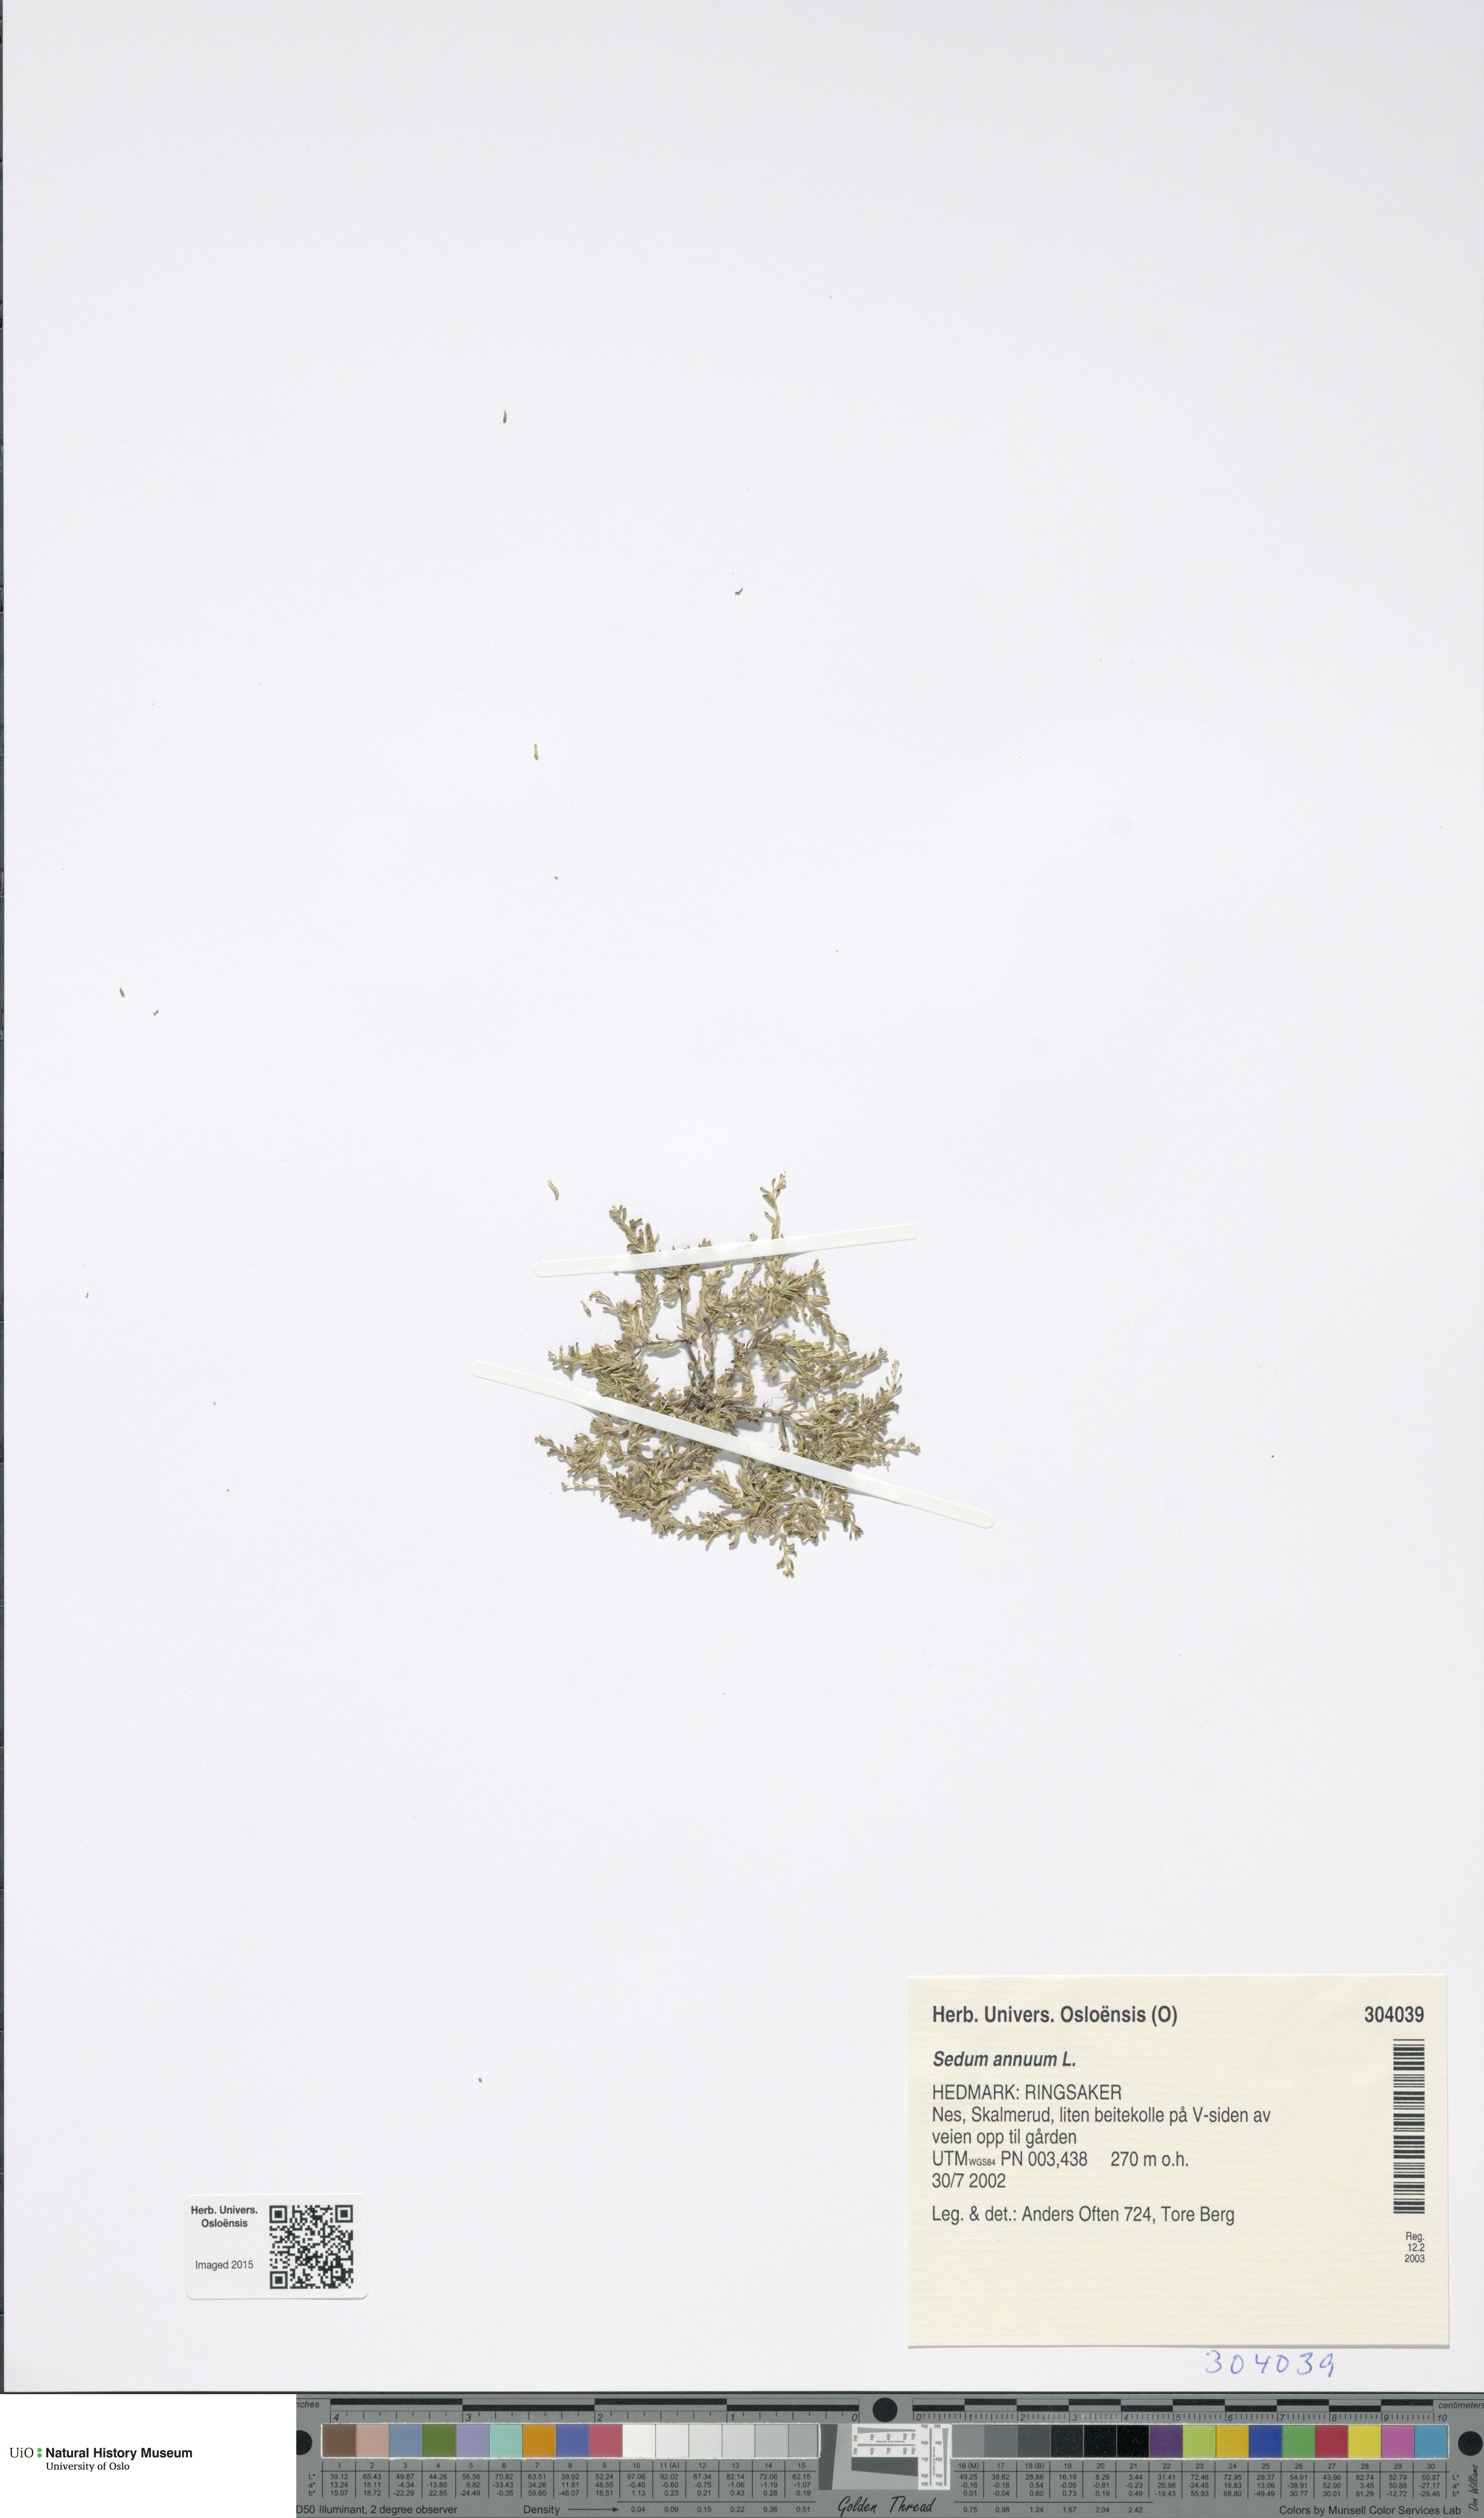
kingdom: Plantae
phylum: Tracheophyta
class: Magnoliopsida
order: Saxifragales
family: Crassulaceae
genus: Sedum
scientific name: Sedum annuum
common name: Annual stonecrop
